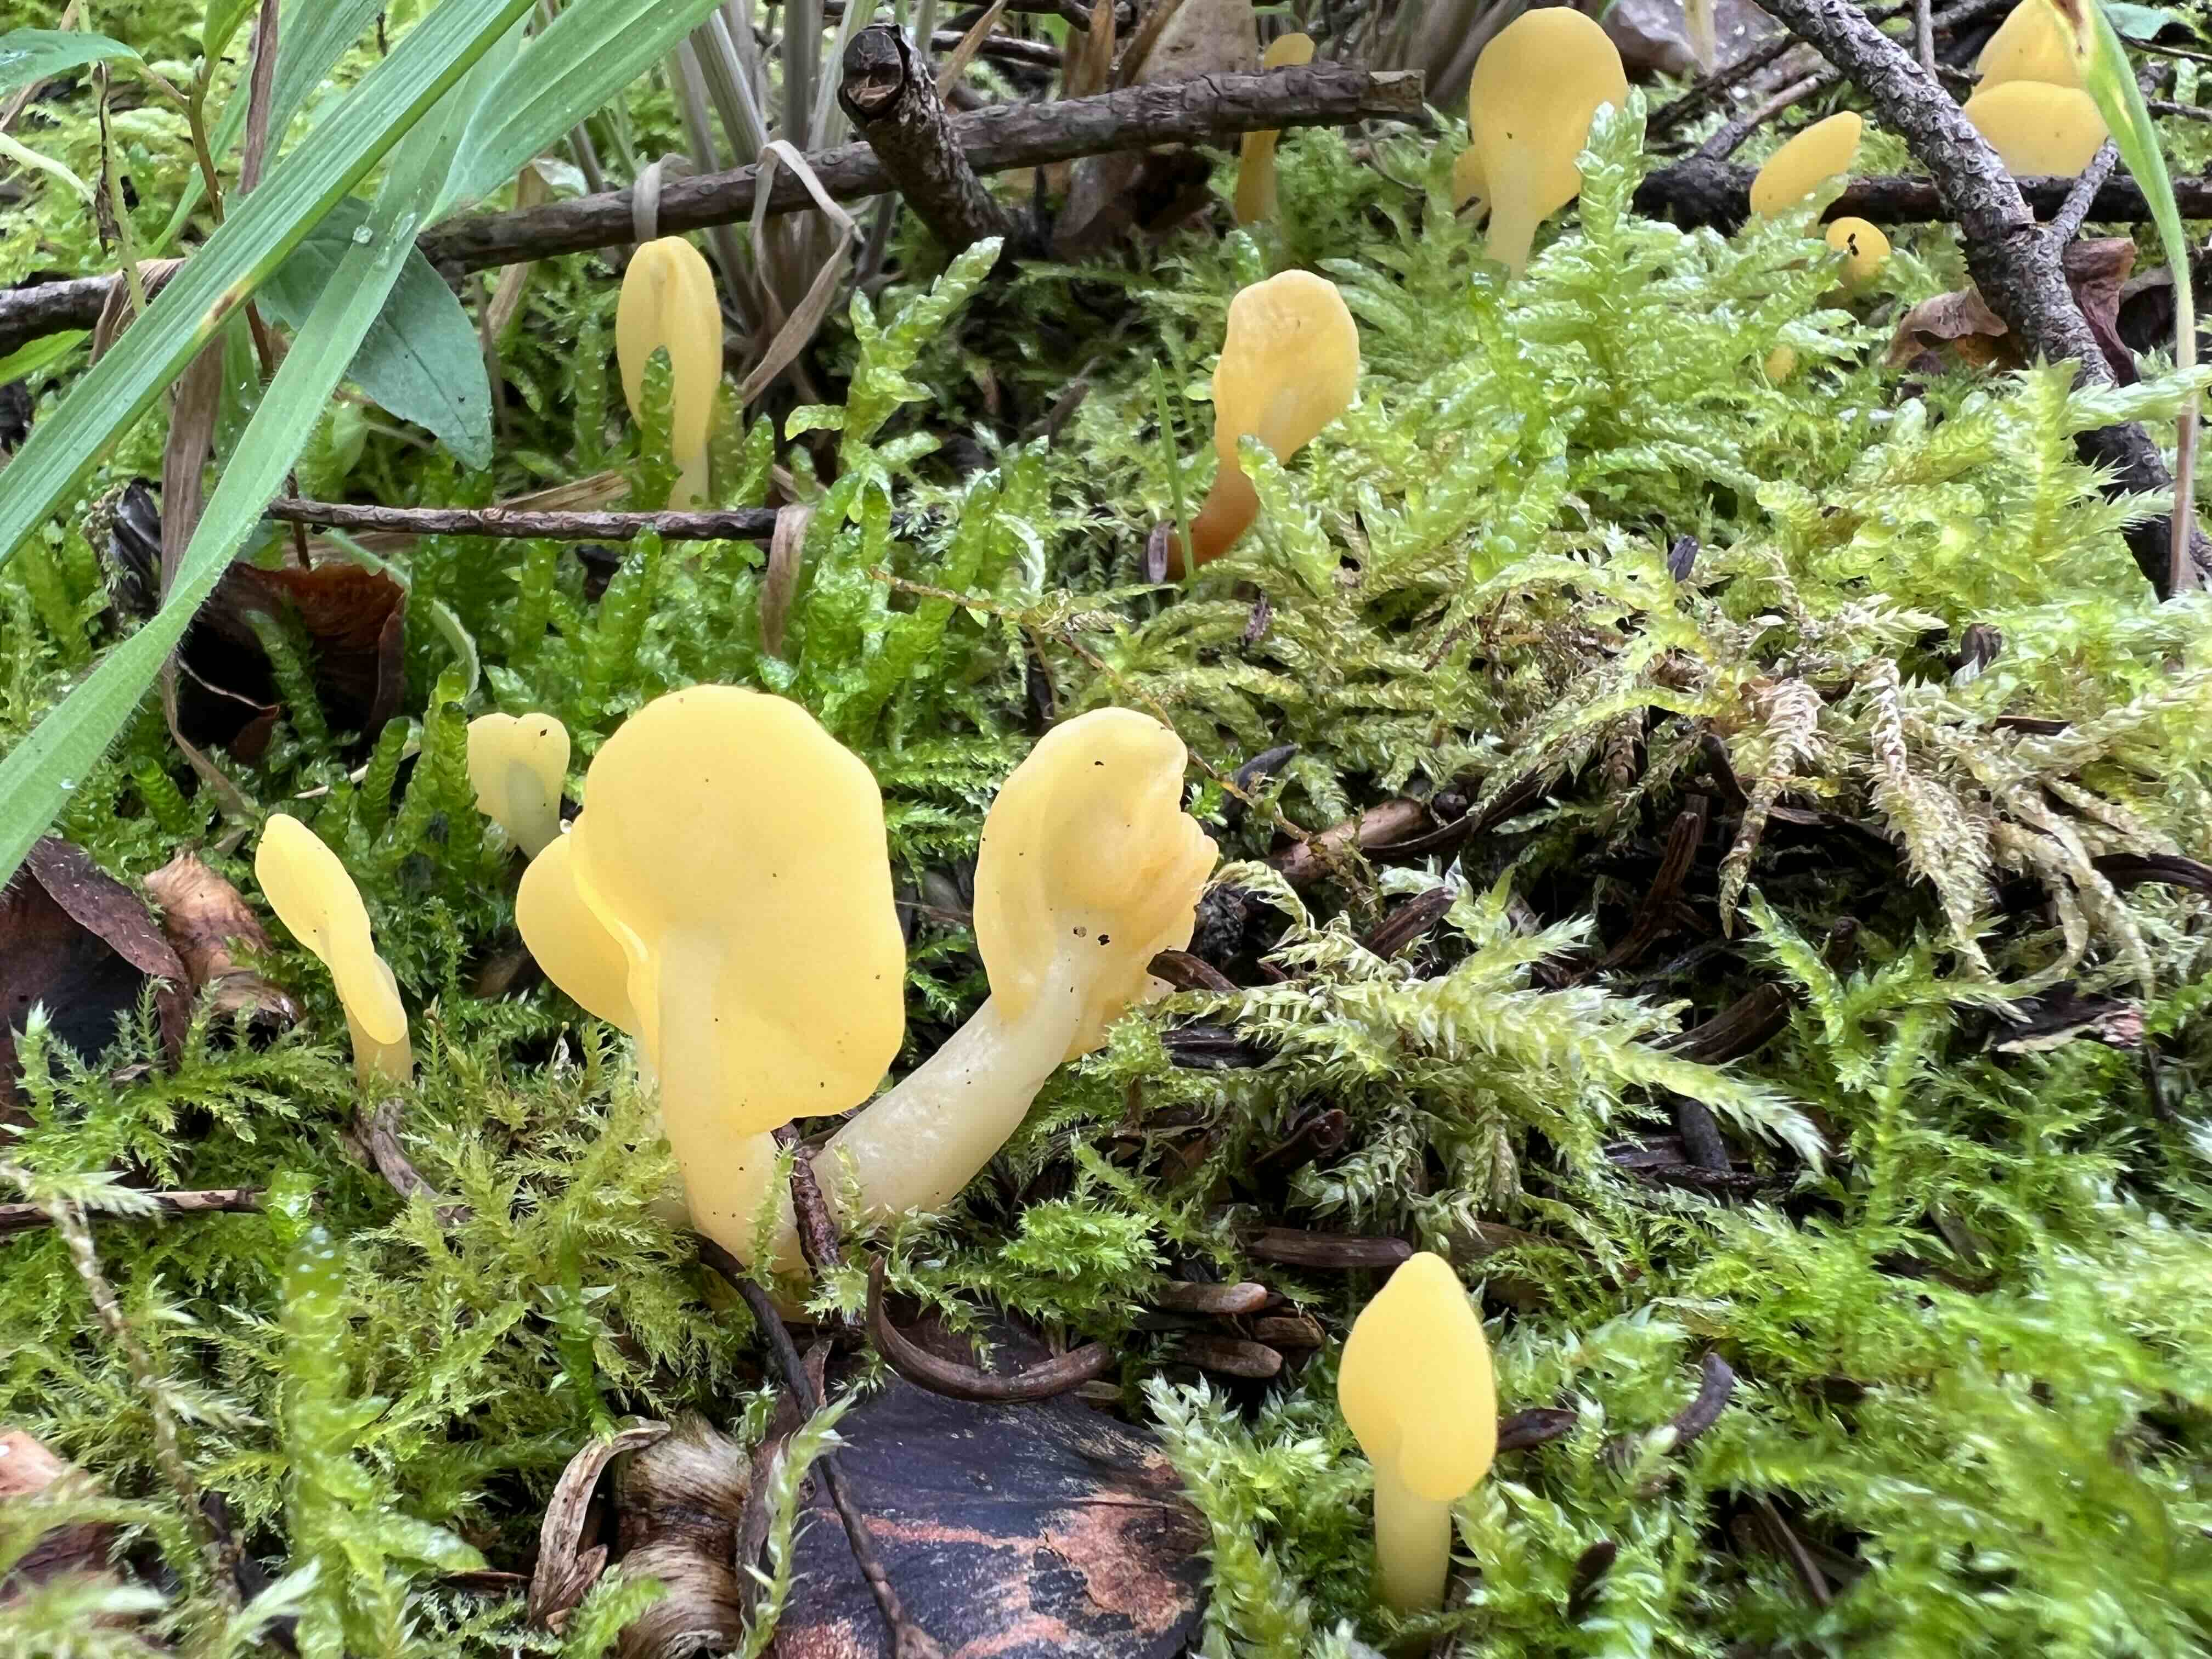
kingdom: Fungi
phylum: Ascomycota
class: Leotiomycetes
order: Rhytismatales
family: Cudoniaceae
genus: Spathularia
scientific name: Spathularia flavida
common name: gul spatelsvamp
